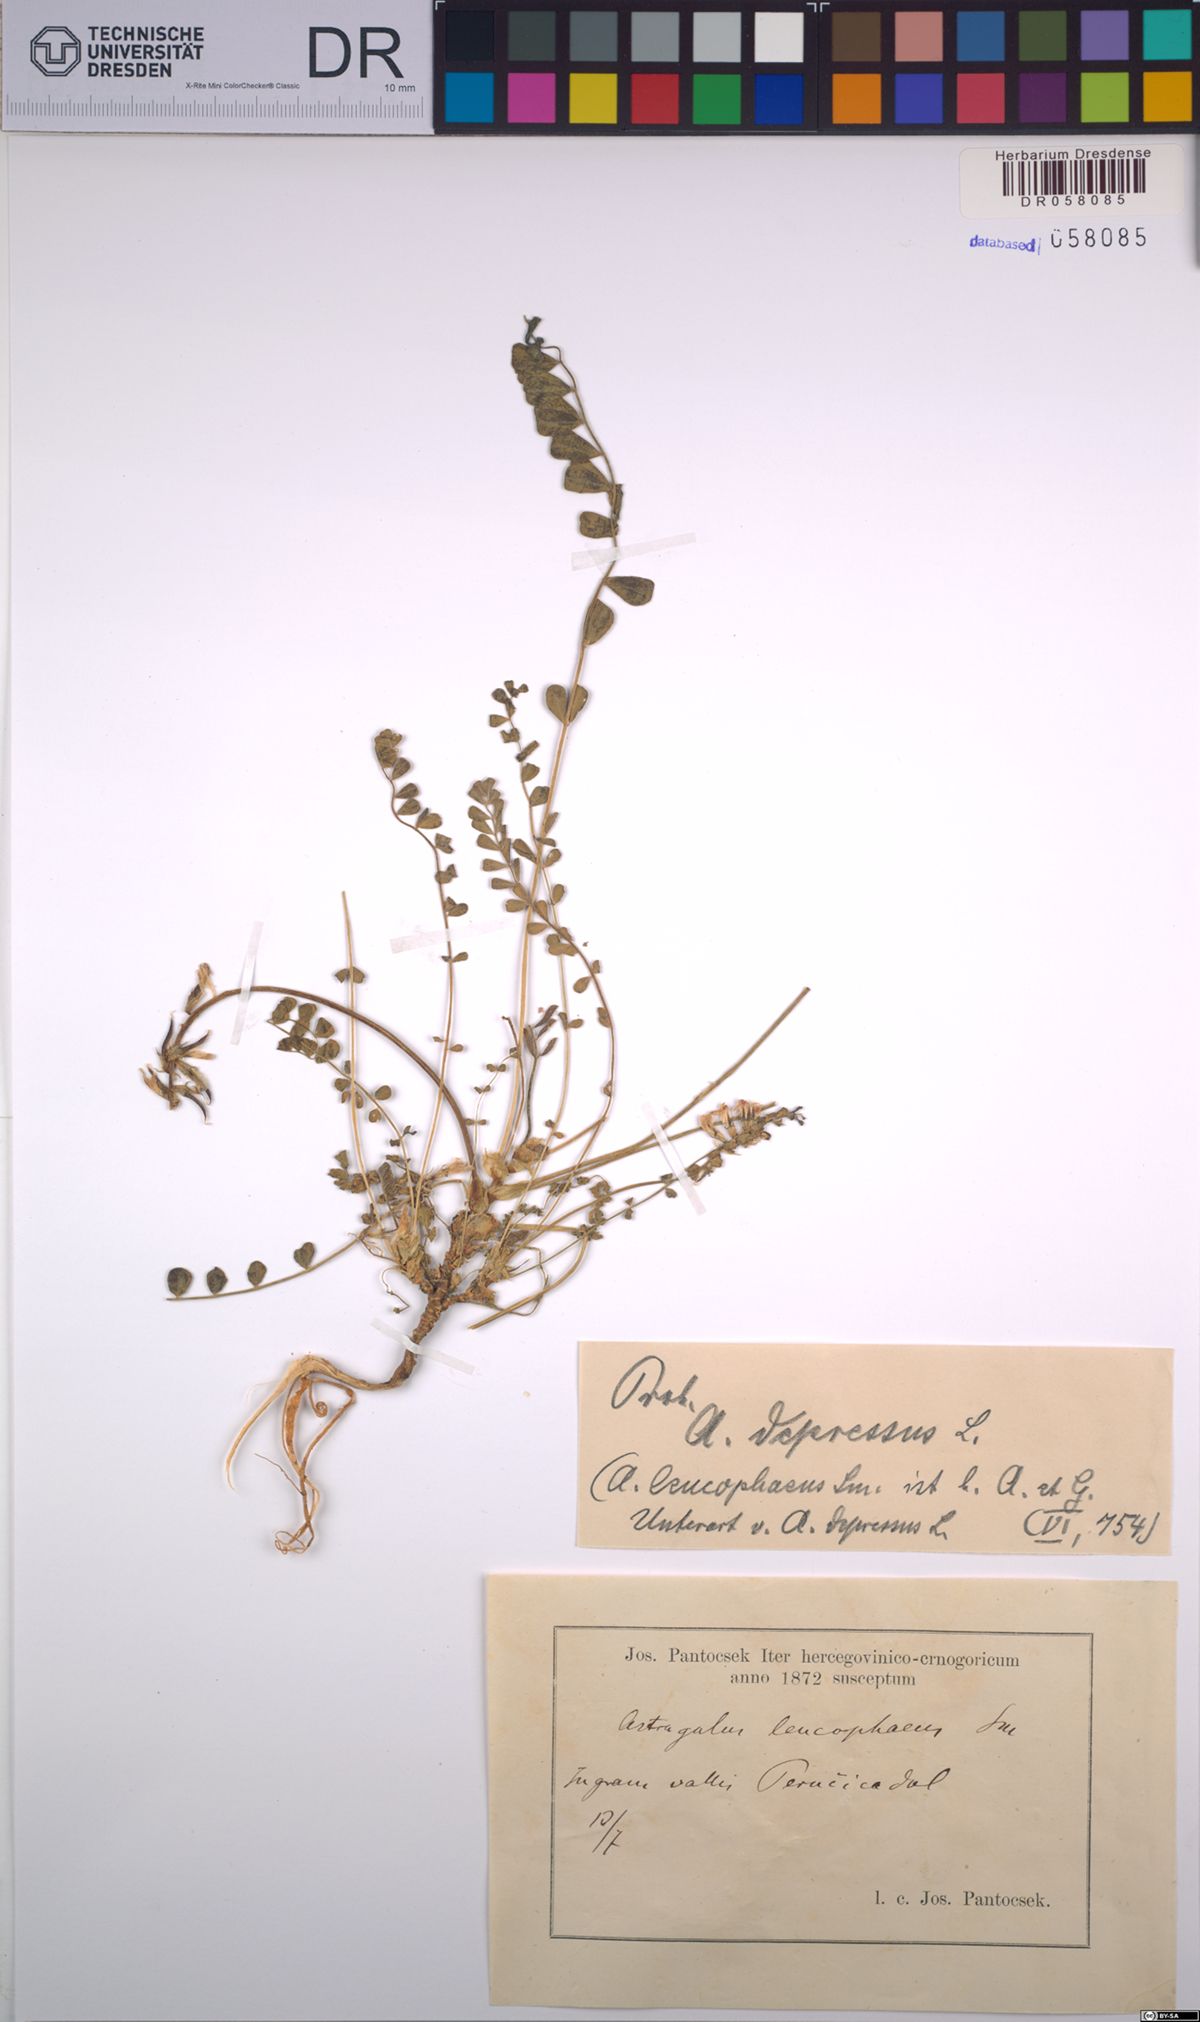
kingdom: Plantae
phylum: Tracheophyta
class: Magnoliopsida
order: Fabales
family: Fabaceae
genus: Astragalus
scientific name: Astragalus depressus
